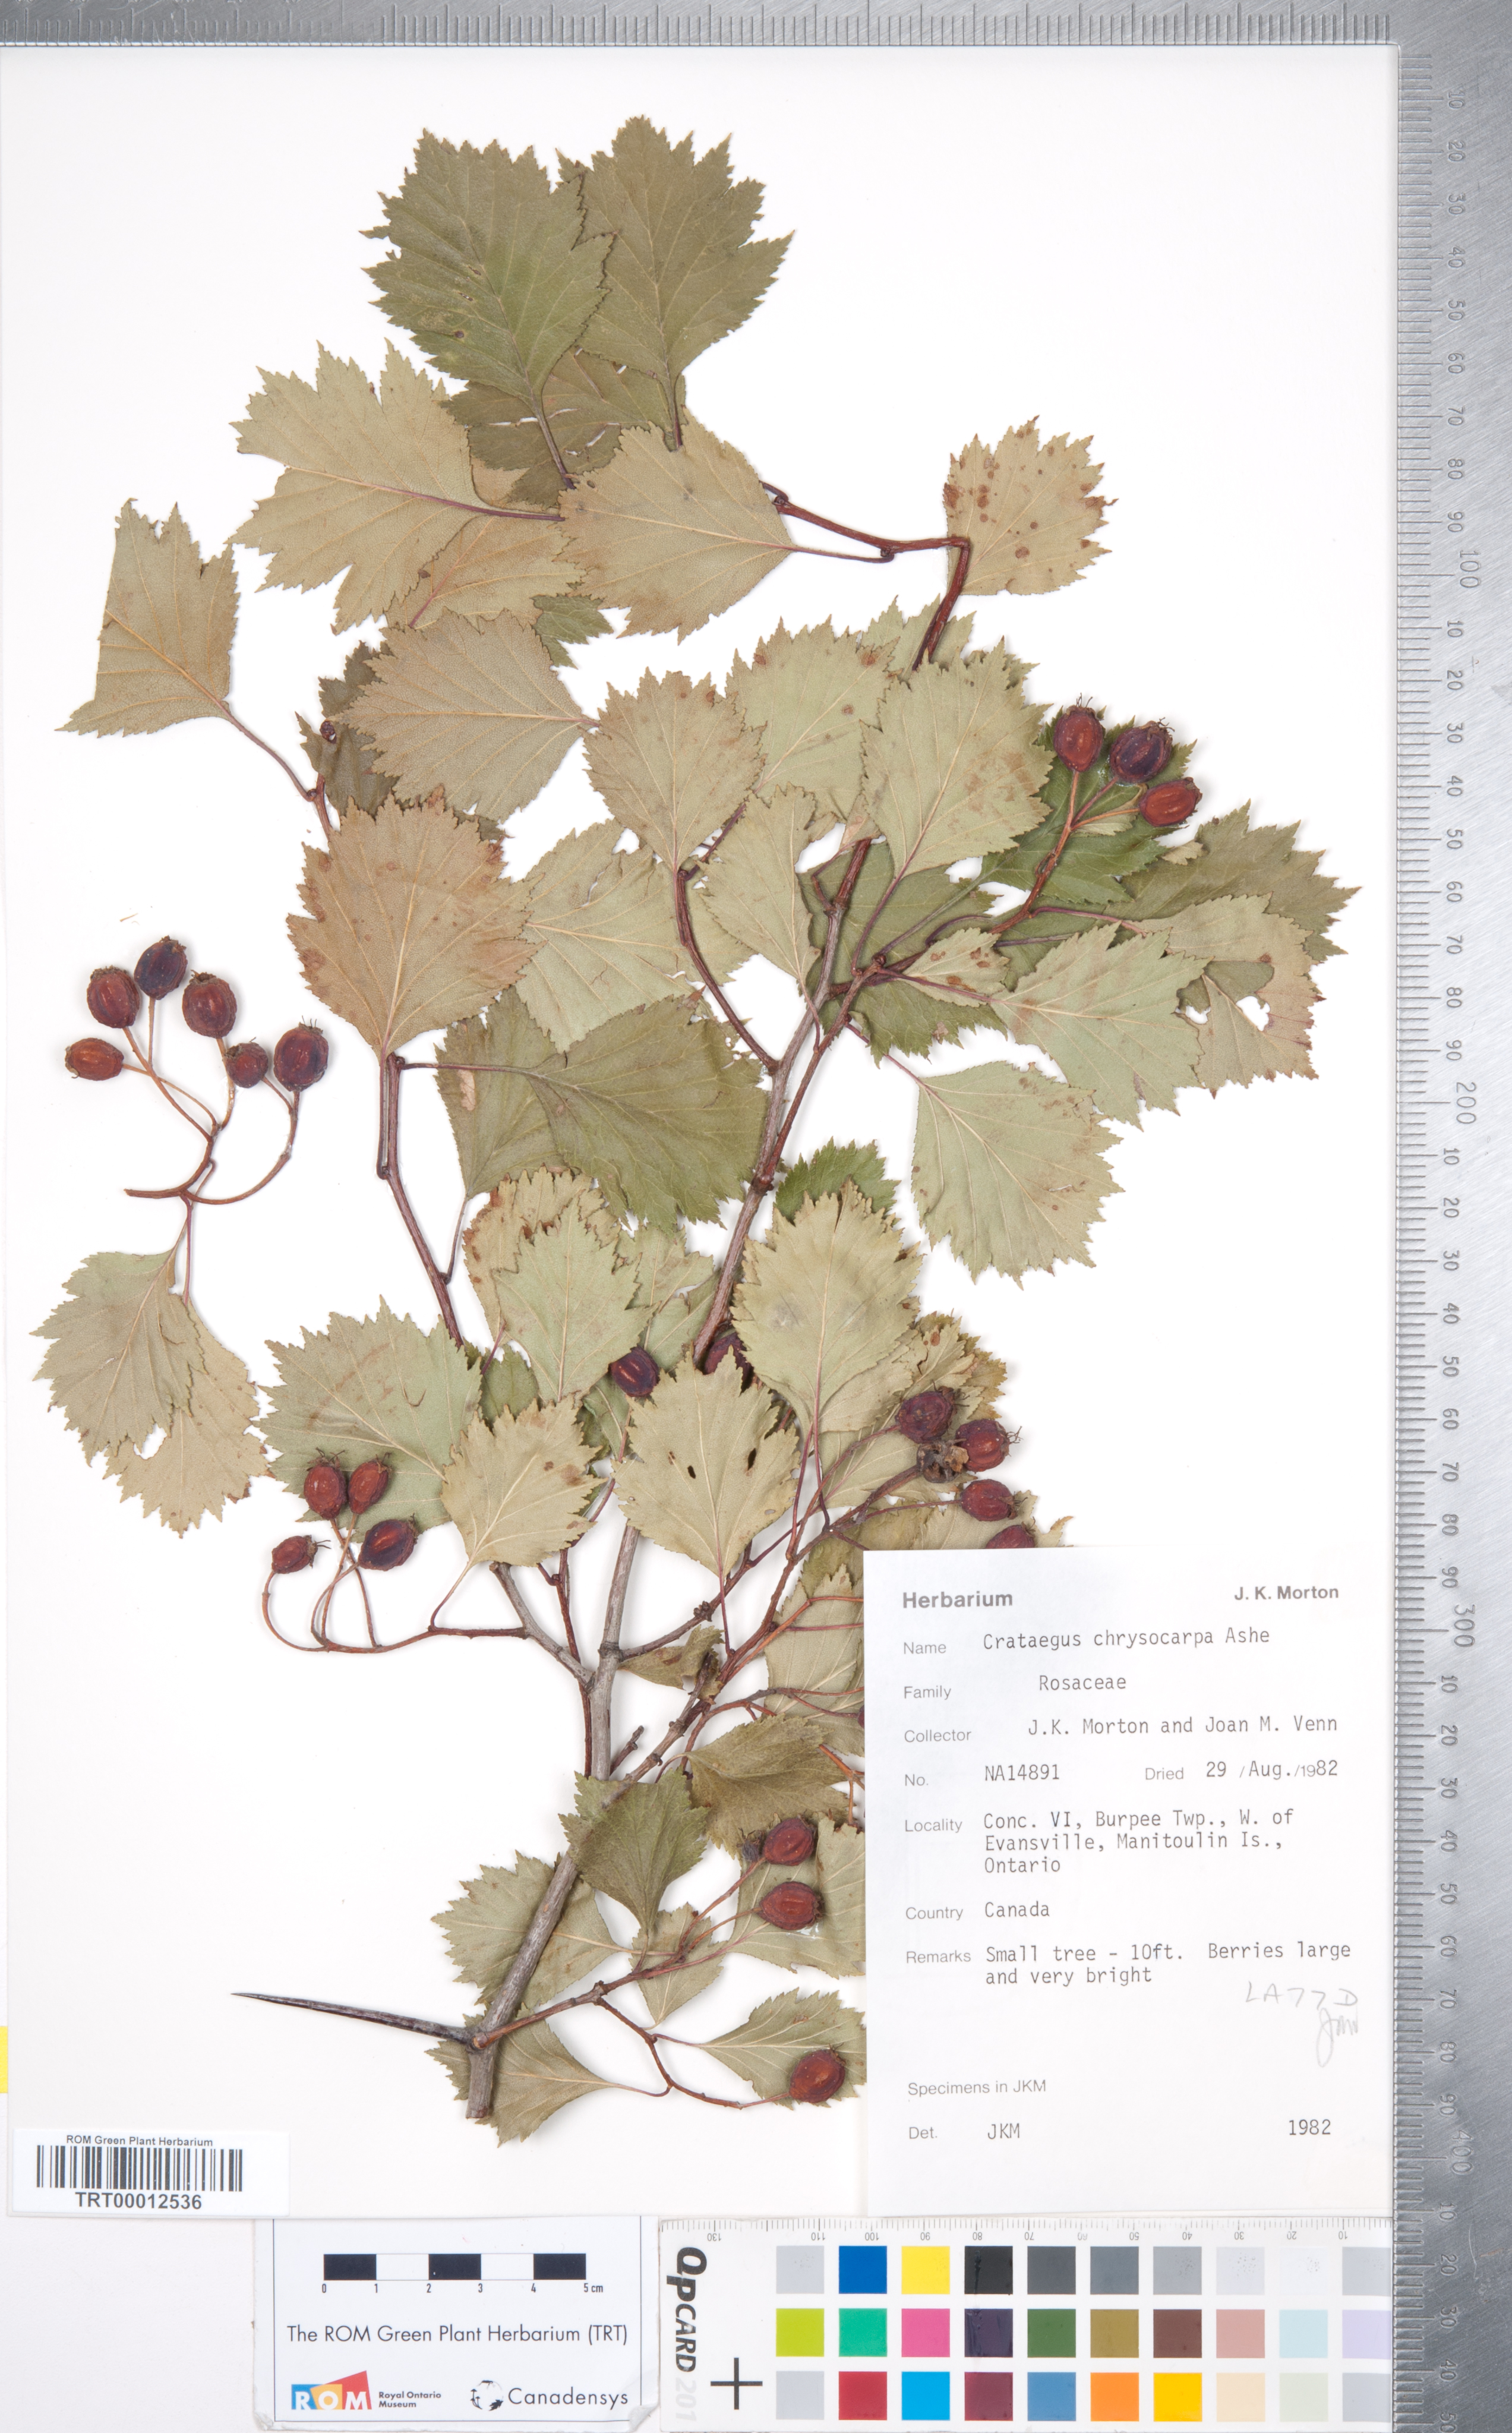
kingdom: Plantae
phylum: Tracheophyta
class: Magnoliopsida
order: Rosales
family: Rosaceae
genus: Crataegus
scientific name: Crataegus chrysocarpa
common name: Fire-berry hawthorn
